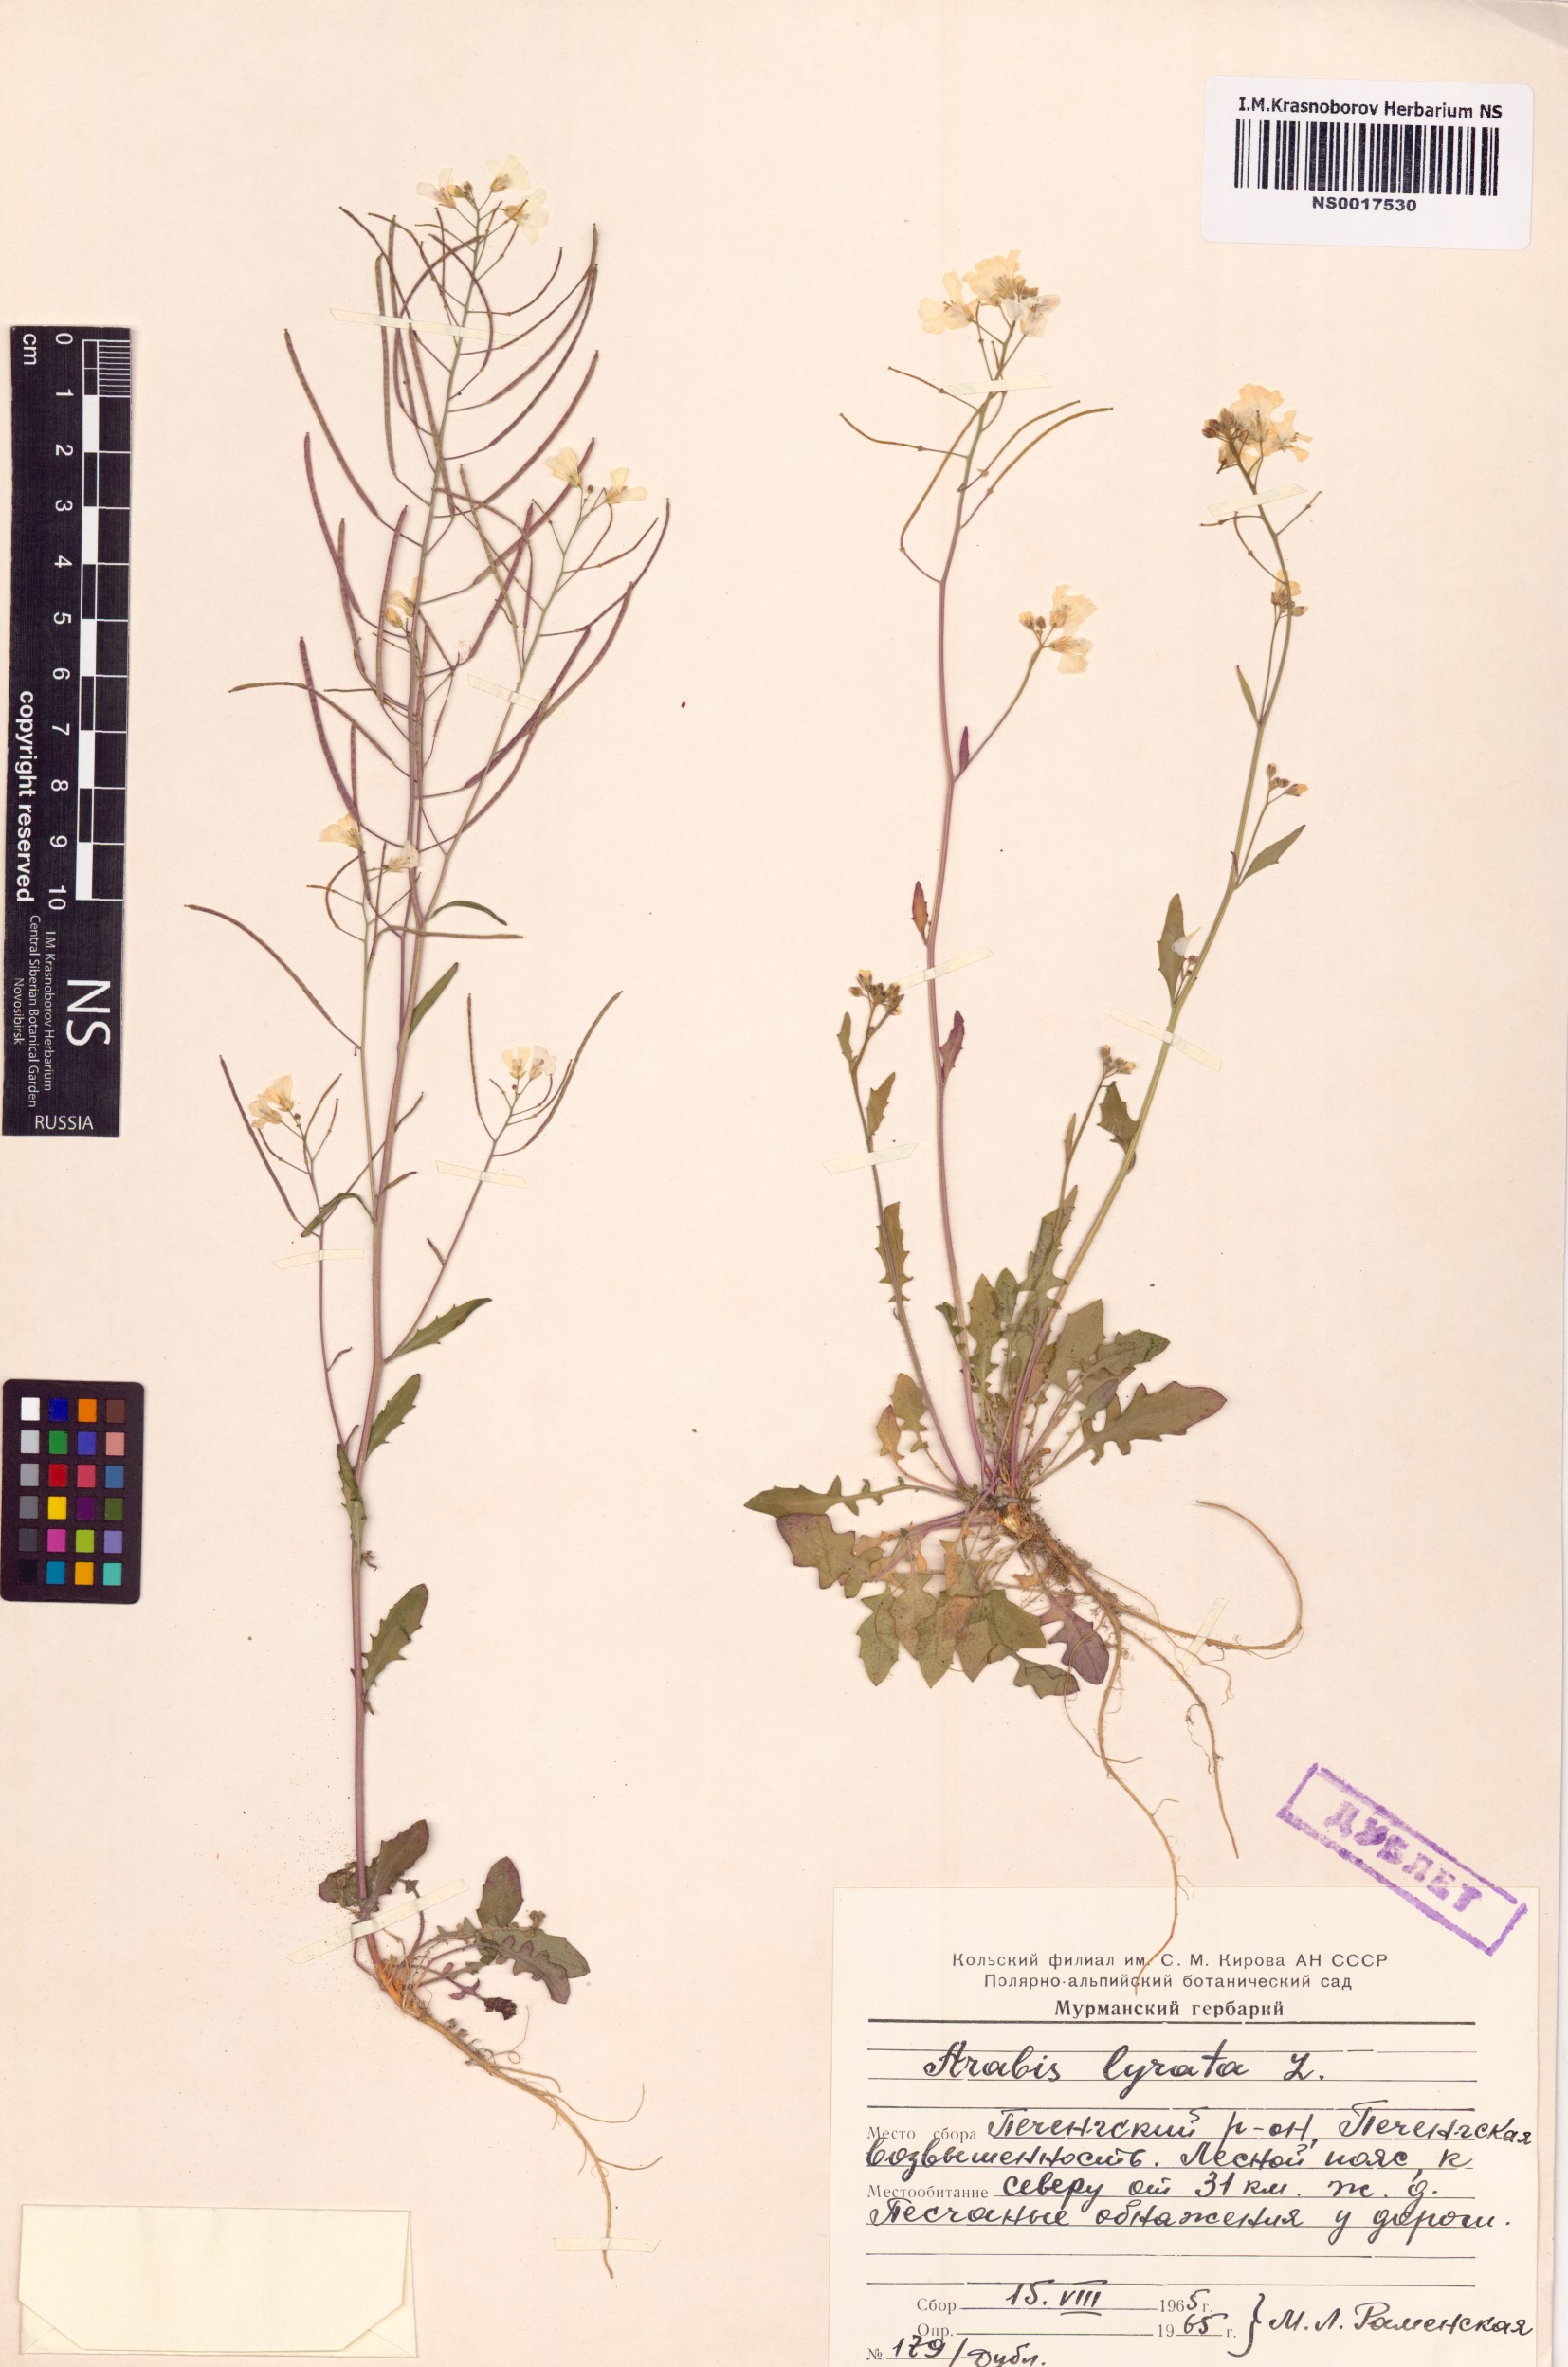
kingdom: Plantae
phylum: Tracheophyta
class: Magnoliopsida
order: Brassicales
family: Brassicaceae
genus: Arabidopsis
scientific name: Arabidopsis lyrata
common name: Lyrate rockcress
